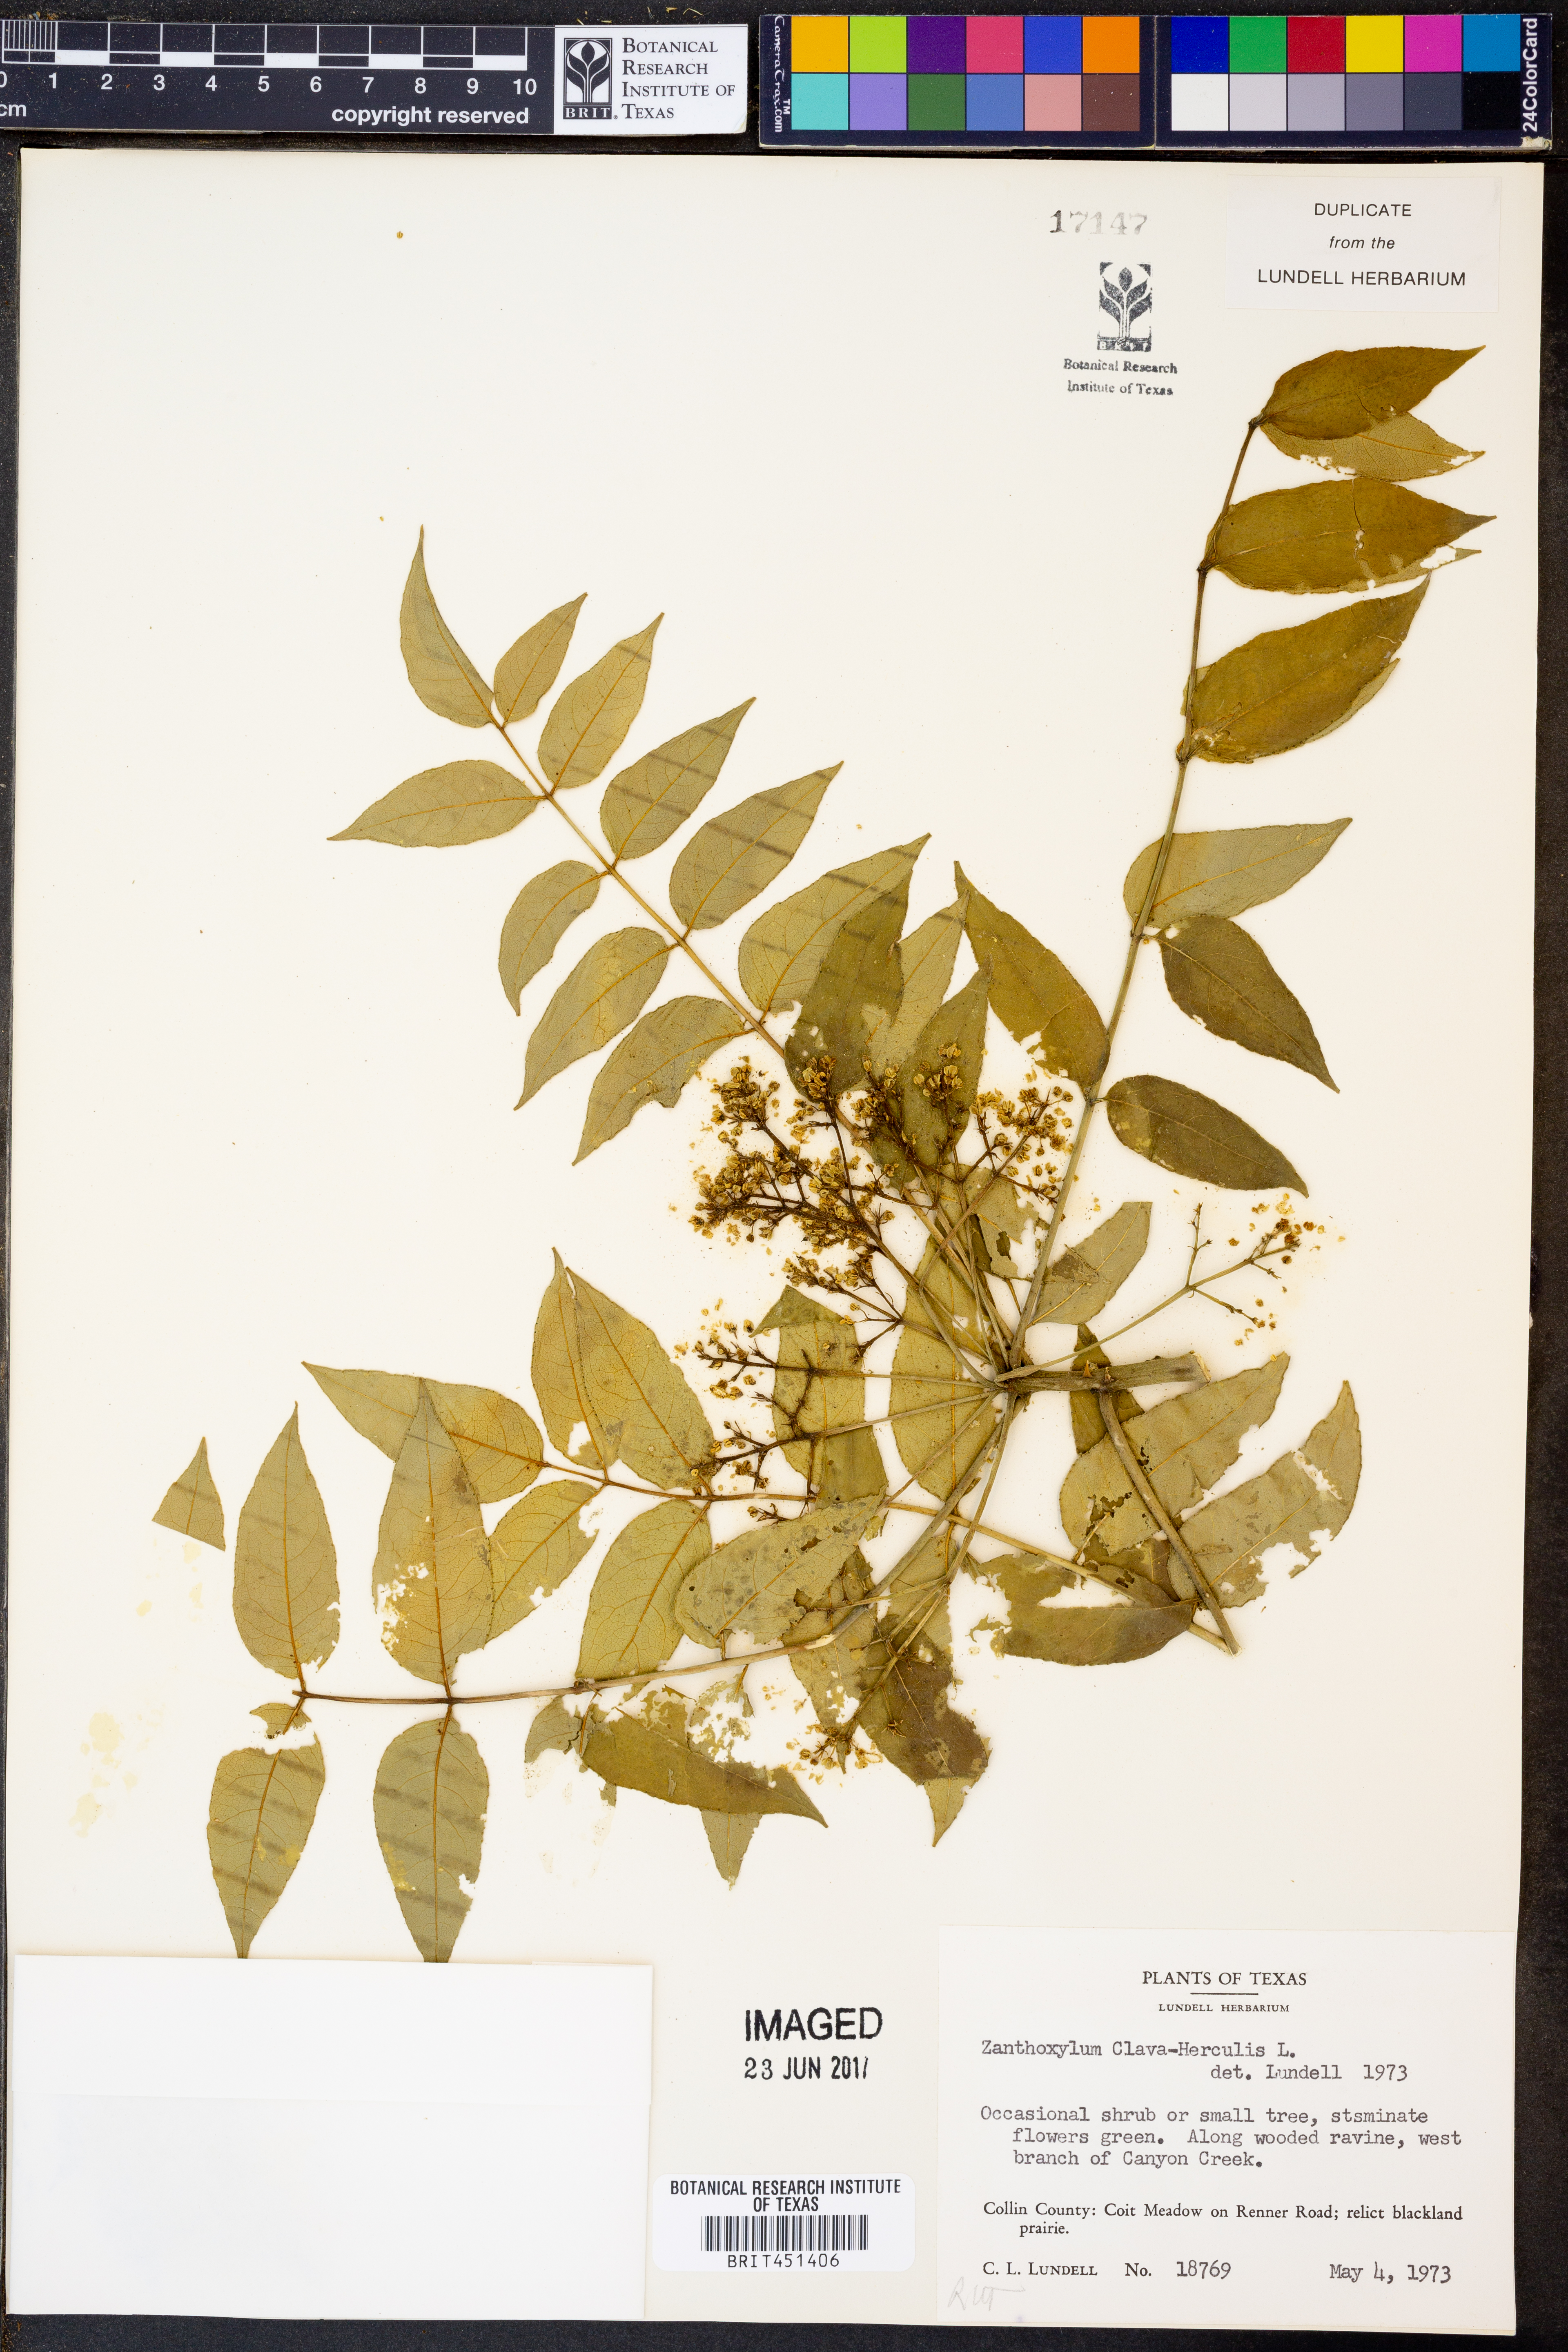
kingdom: Plantae
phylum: Tracheophyta
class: Magnoliopsida
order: Sapindales
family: Rutaceae
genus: Zanthoxylum
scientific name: Zanthoxylum avicennae
